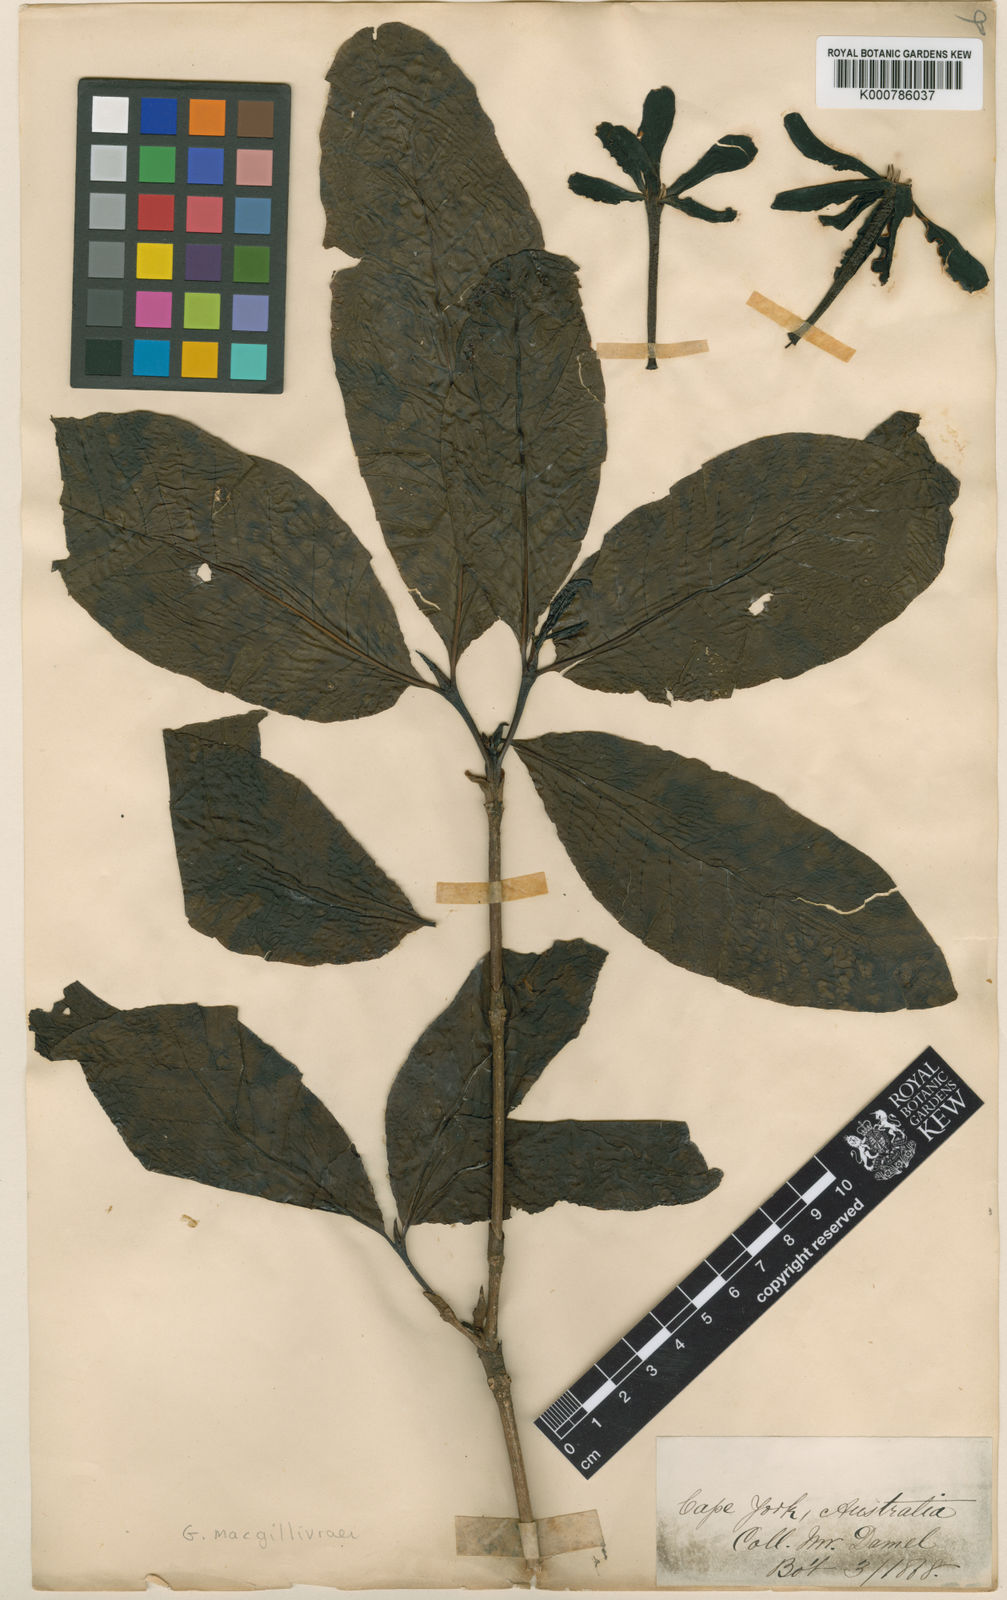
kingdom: Plantae
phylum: Tracheophyta
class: Magnoliopsida
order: Gentianales
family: Rubiaceae
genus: Larsenaikia
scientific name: Larsenaikia ochreata
